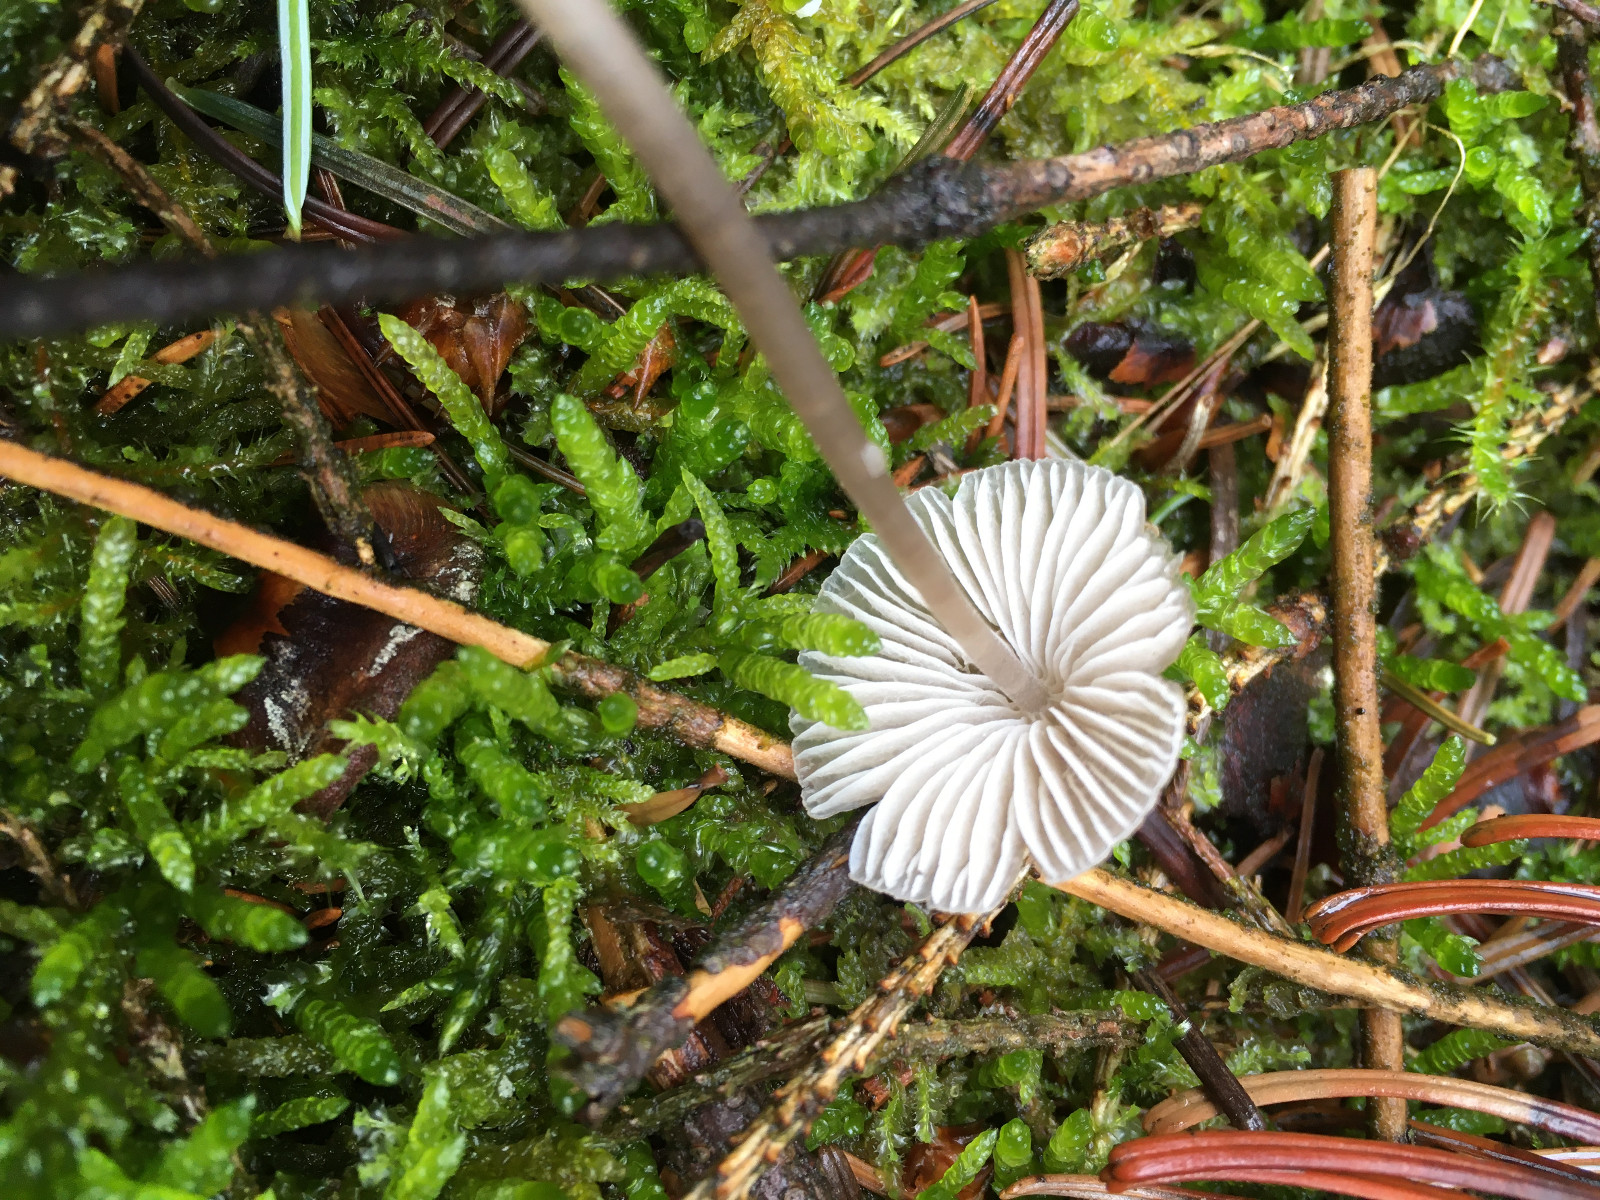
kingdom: Fungi
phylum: Basidiomycota
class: Agaricomycetes
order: Agaricales
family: Mycenaceae
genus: Mycena
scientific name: Mycena
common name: huesvamp
